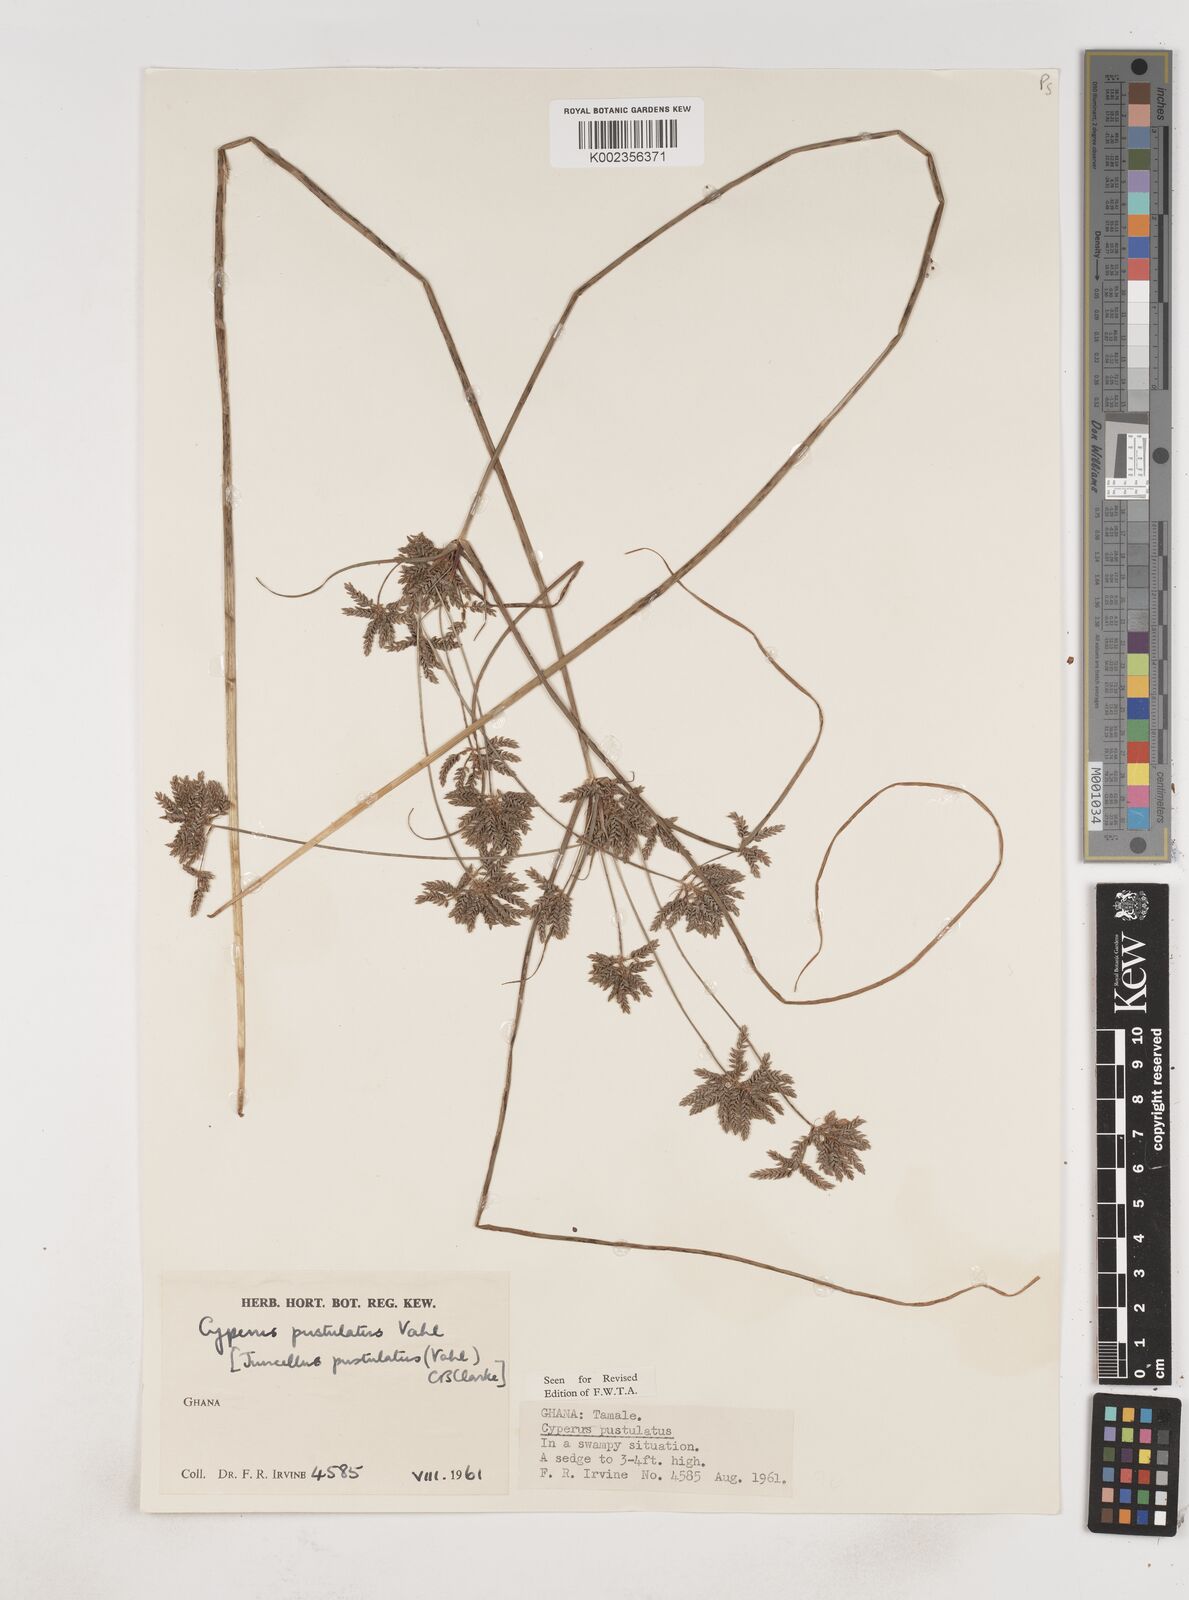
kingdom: Plantae
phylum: Tracheophyta
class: Liliopsida
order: Poales
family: Cyperaceae
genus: Cyperus
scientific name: Cyperus pustulatus
